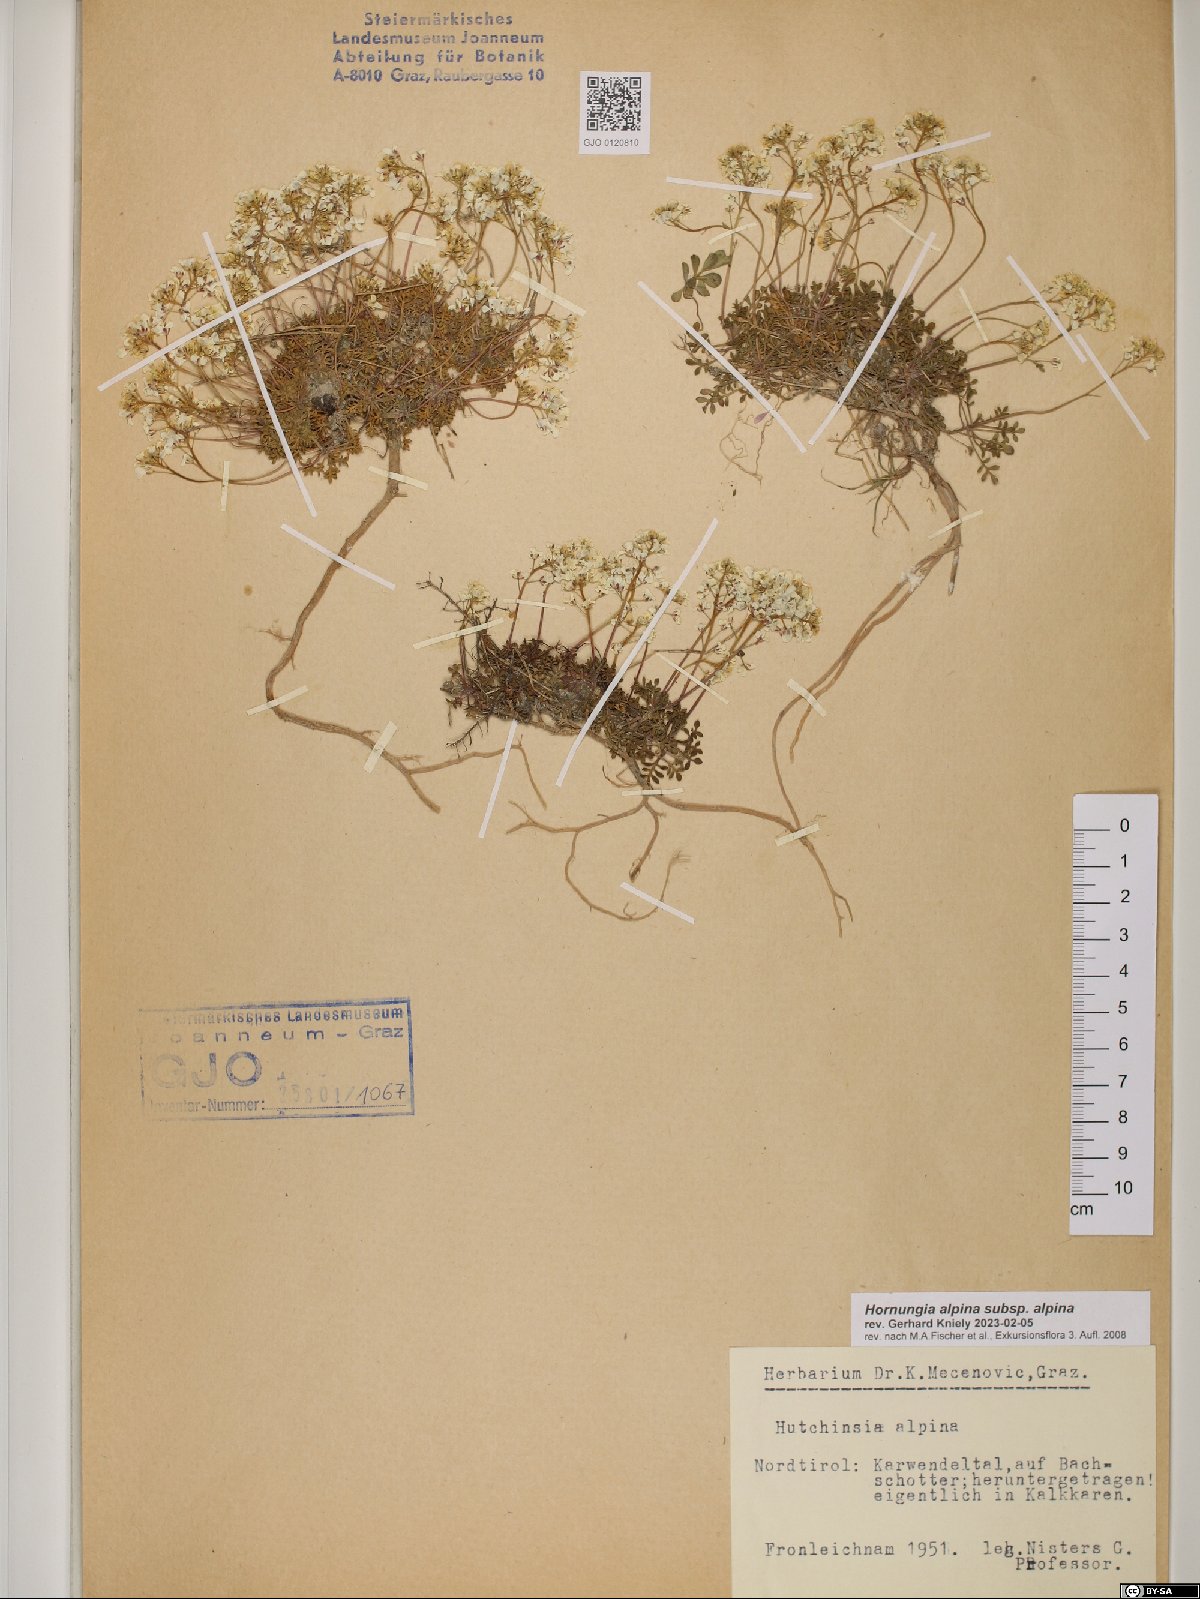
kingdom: Plantae
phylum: Tracheophyta
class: Magnoliopsida
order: Brassicales
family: Brassicaceae
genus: Hornungia
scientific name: Hornungia alpina
